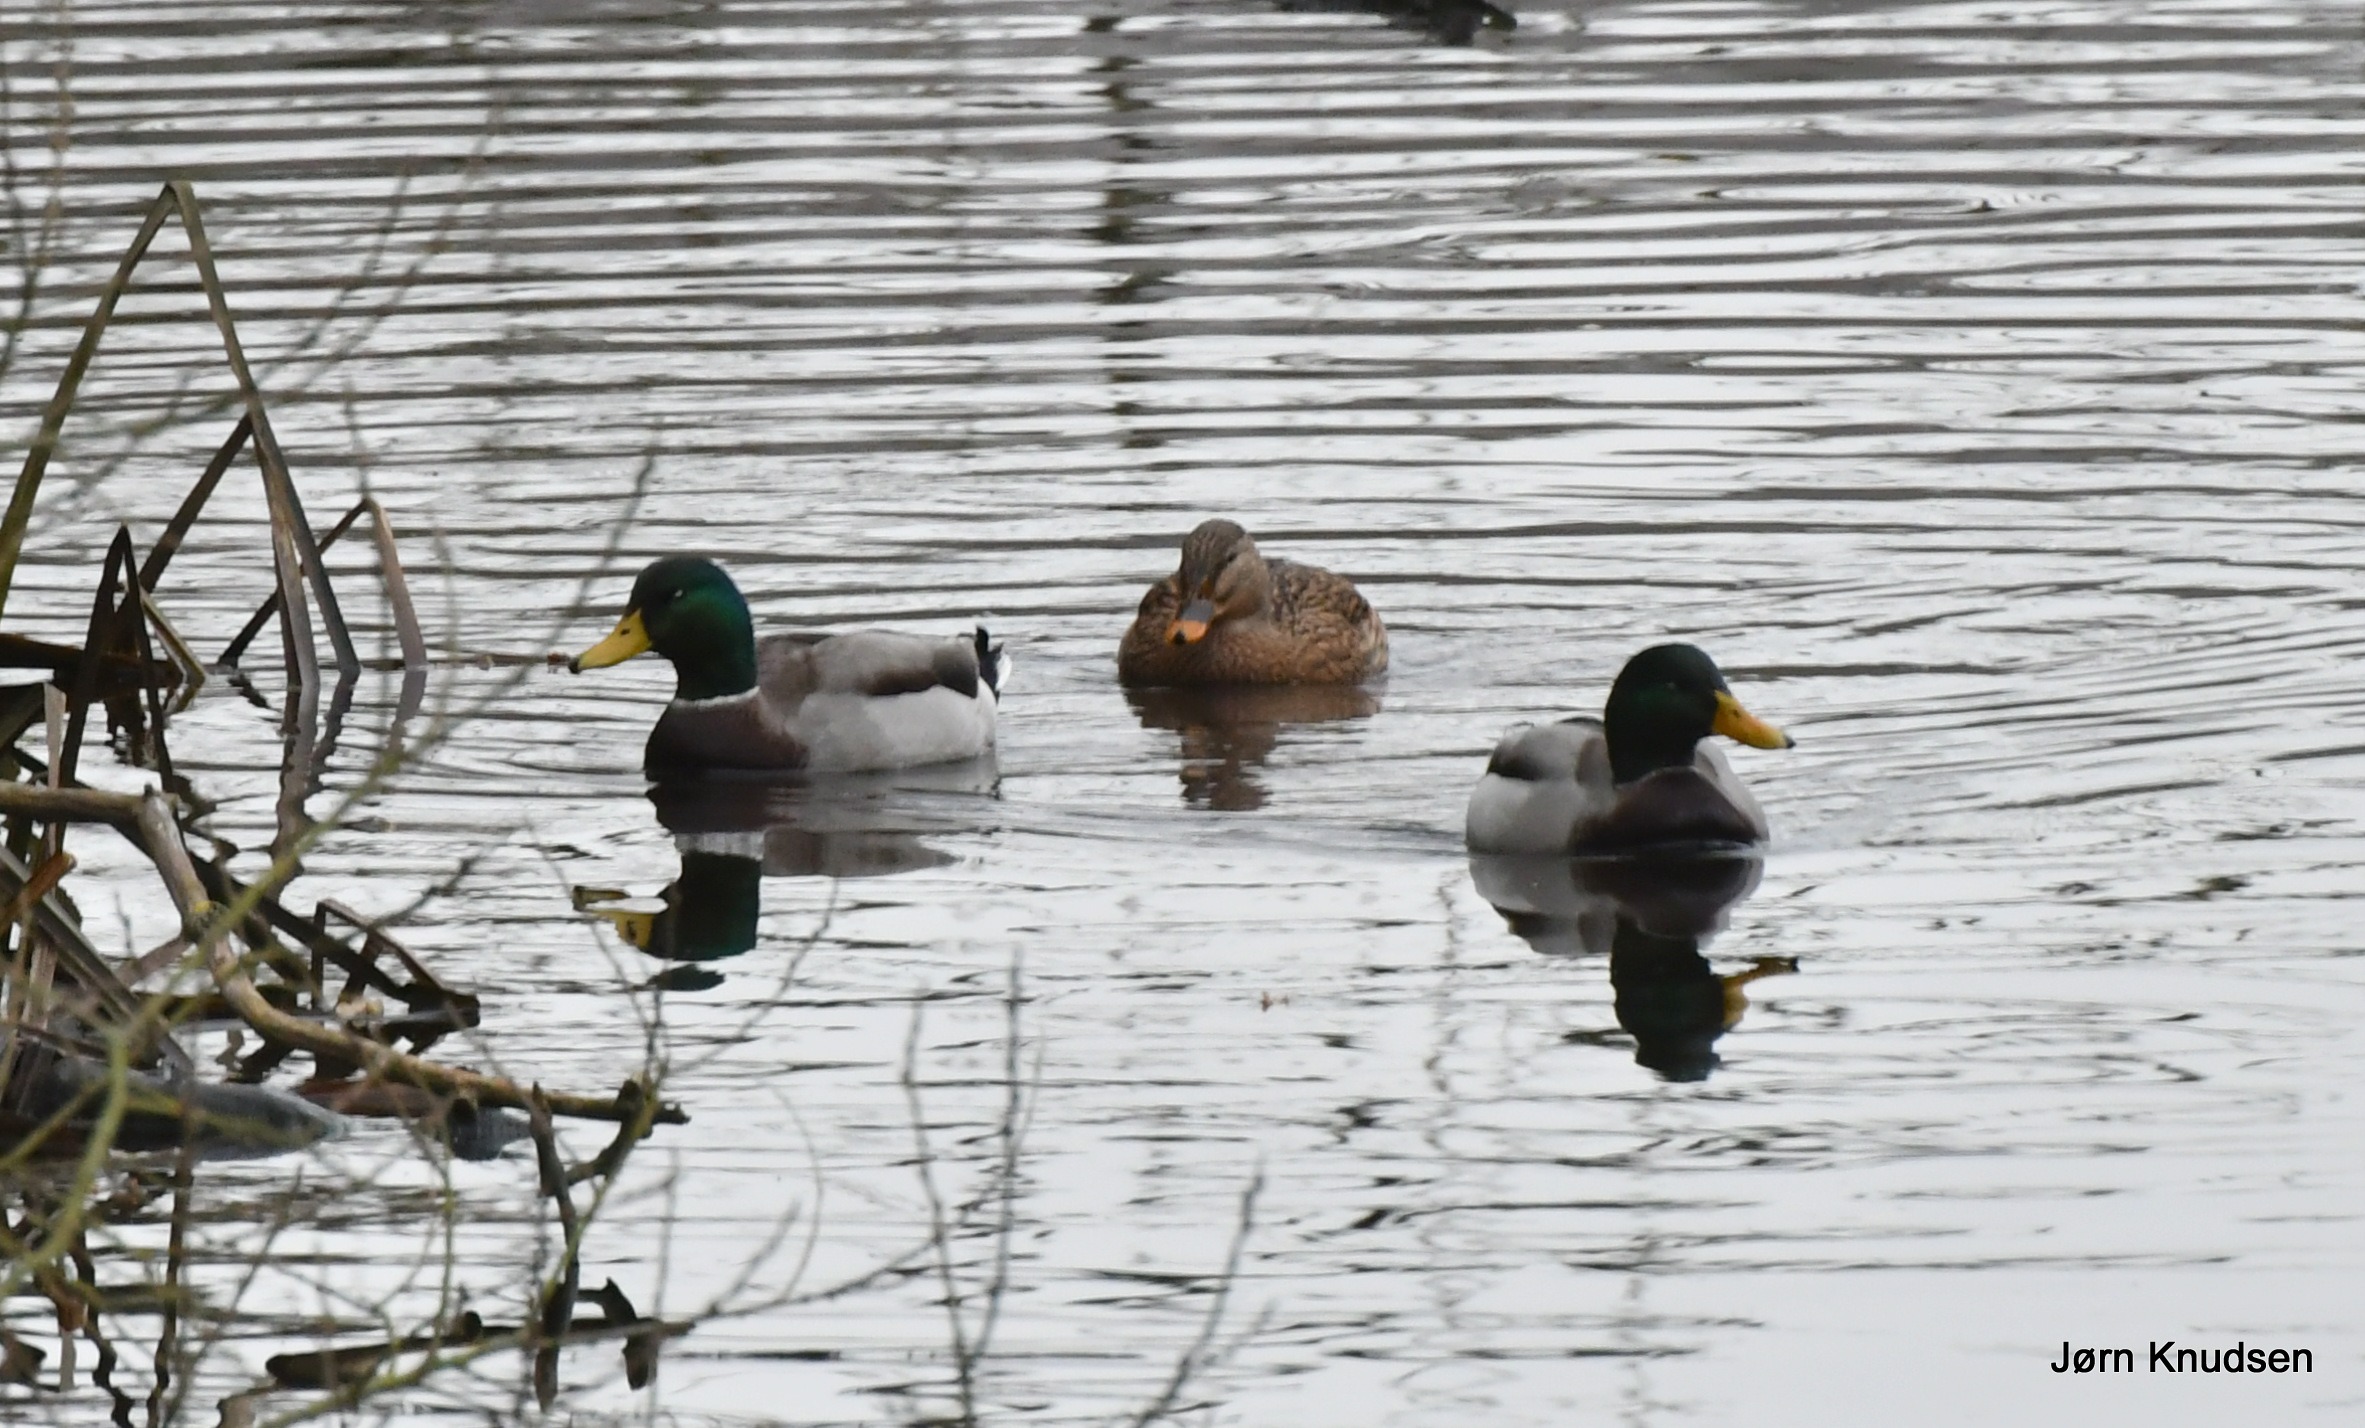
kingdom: Animalia
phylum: Chordata
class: Aves
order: Anseriformes
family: Anatidae
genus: Anas
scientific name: Anas platyrhynchos
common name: Gråand
